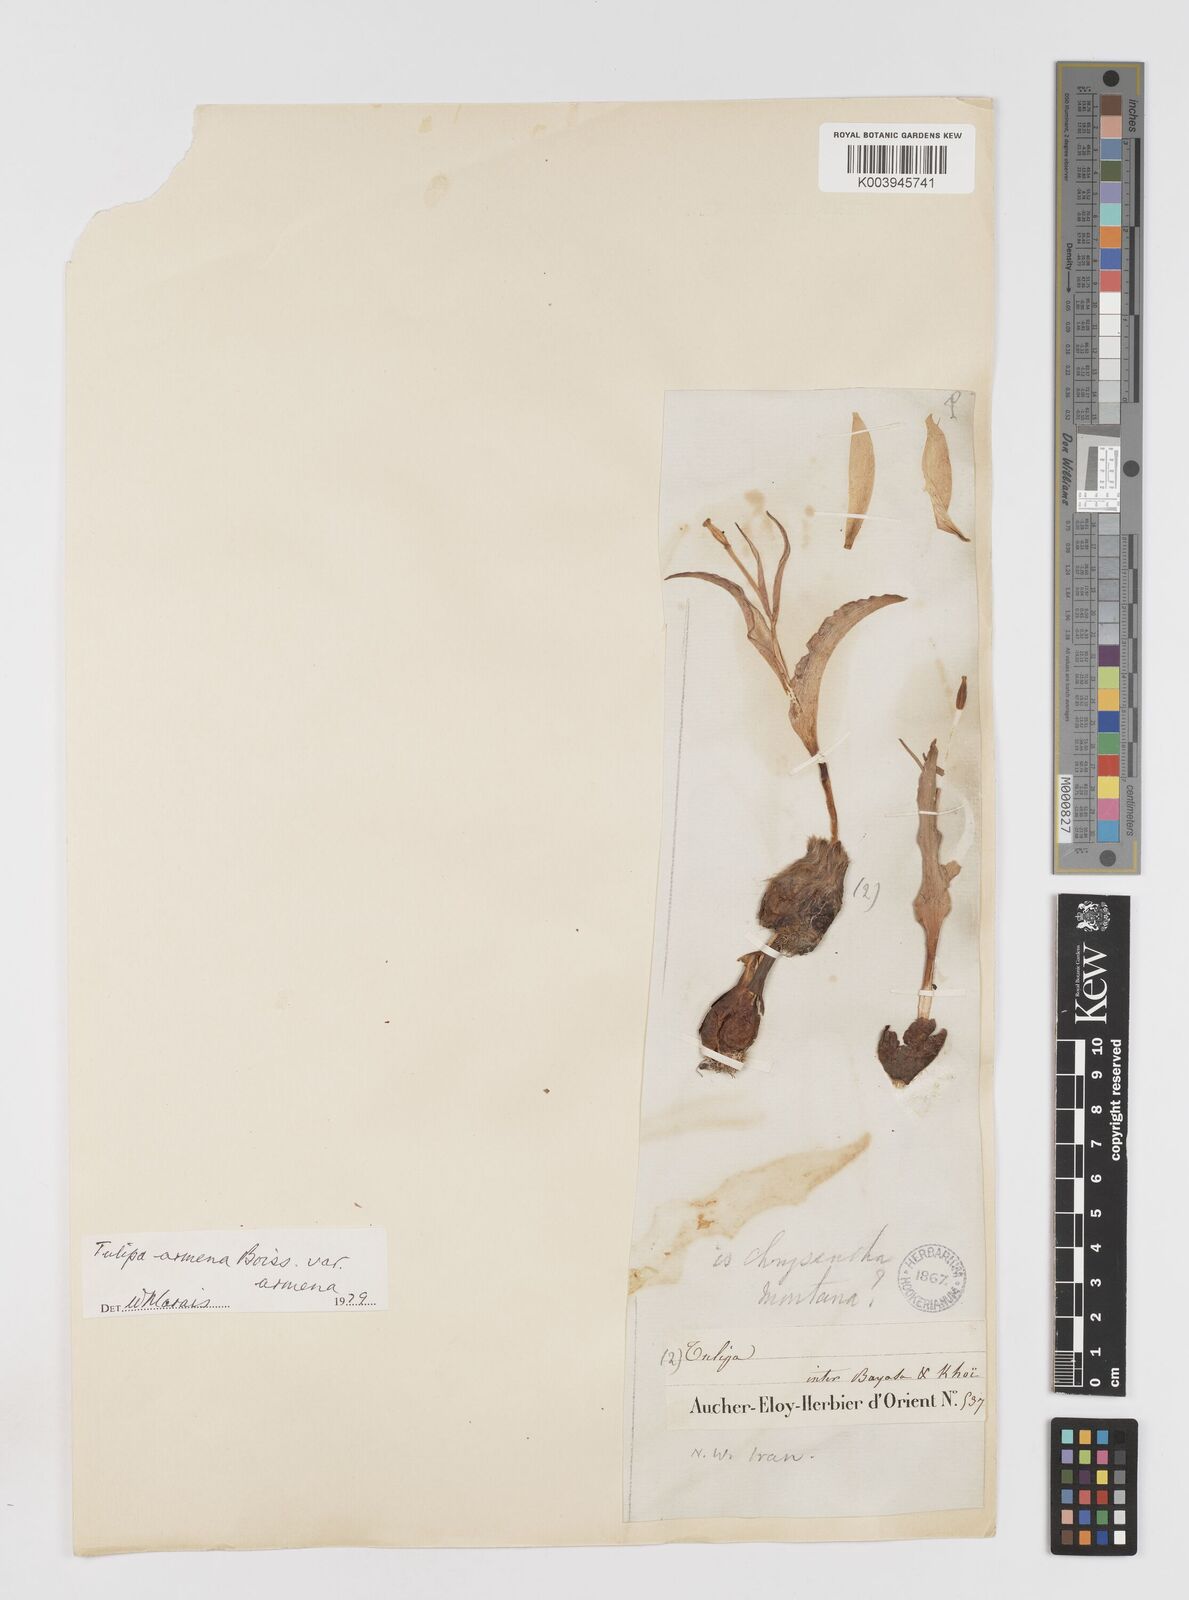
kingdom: Plantae
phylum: Tracheophyta
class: Liliopsida
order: Liliales
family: Liliaceae
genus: Tulipa
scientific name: Tulipa armena
